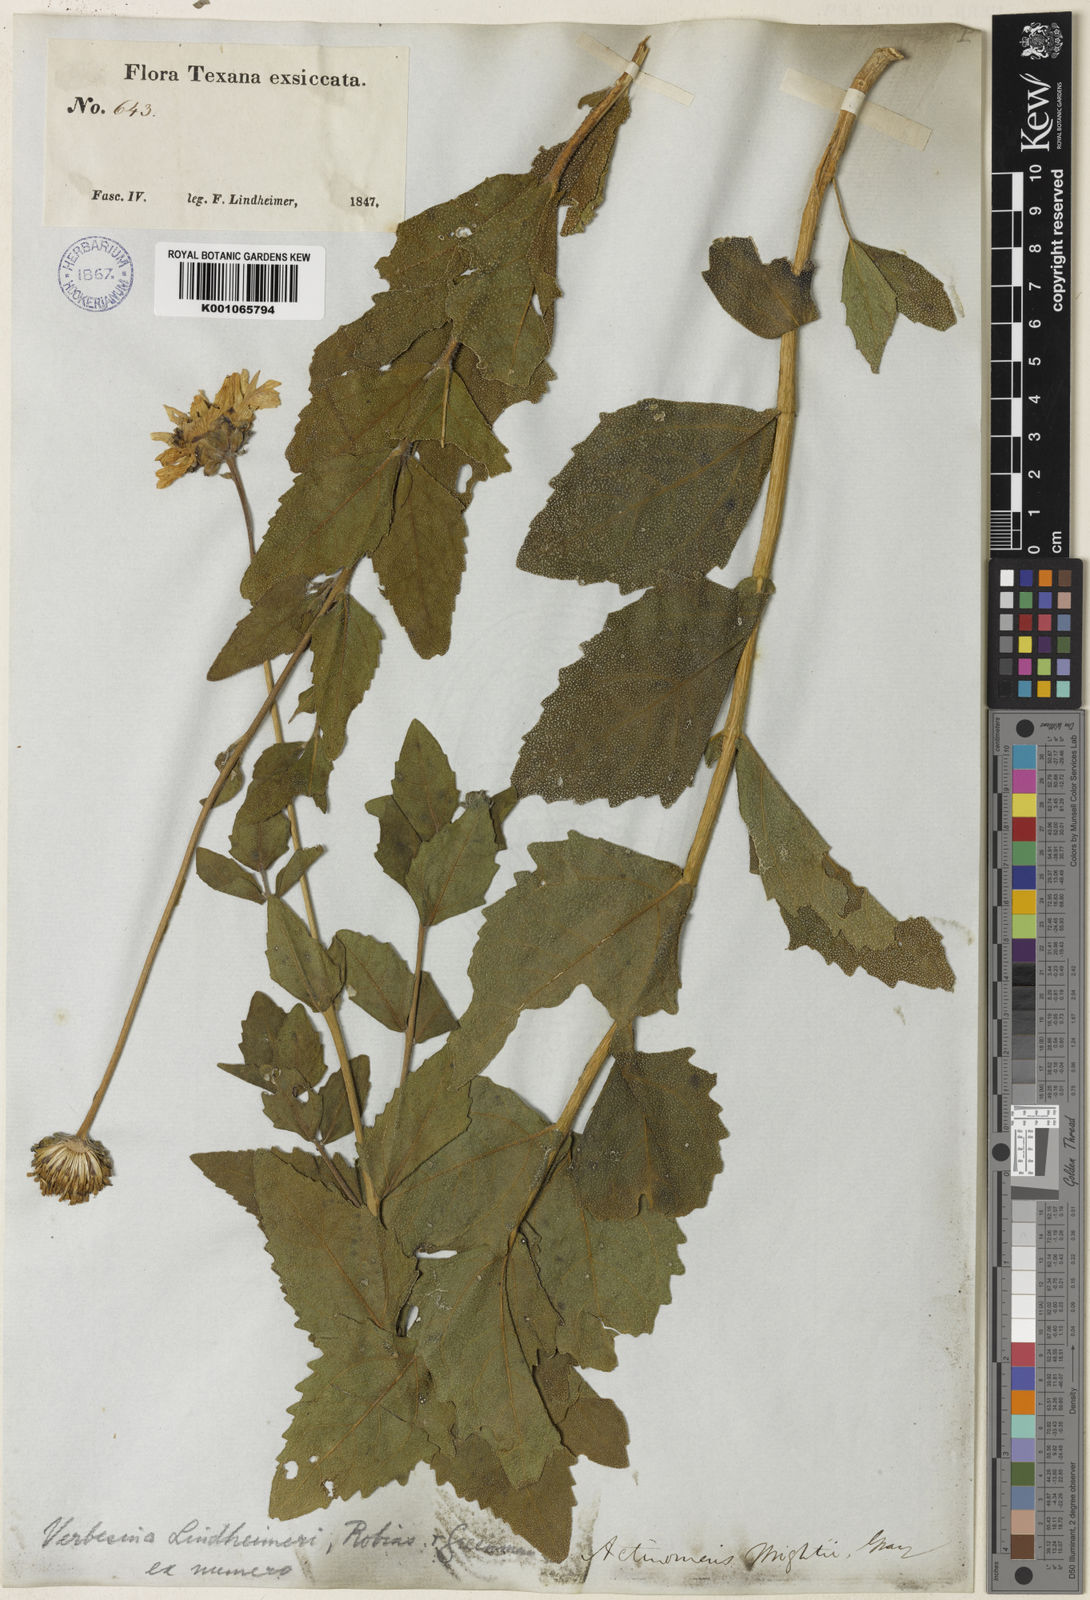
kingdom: Plantae
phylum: Tracheophyta
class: Magnoliopsida
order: Asterales
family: Asteraceae
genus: Verbesina
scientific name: Verbesina
